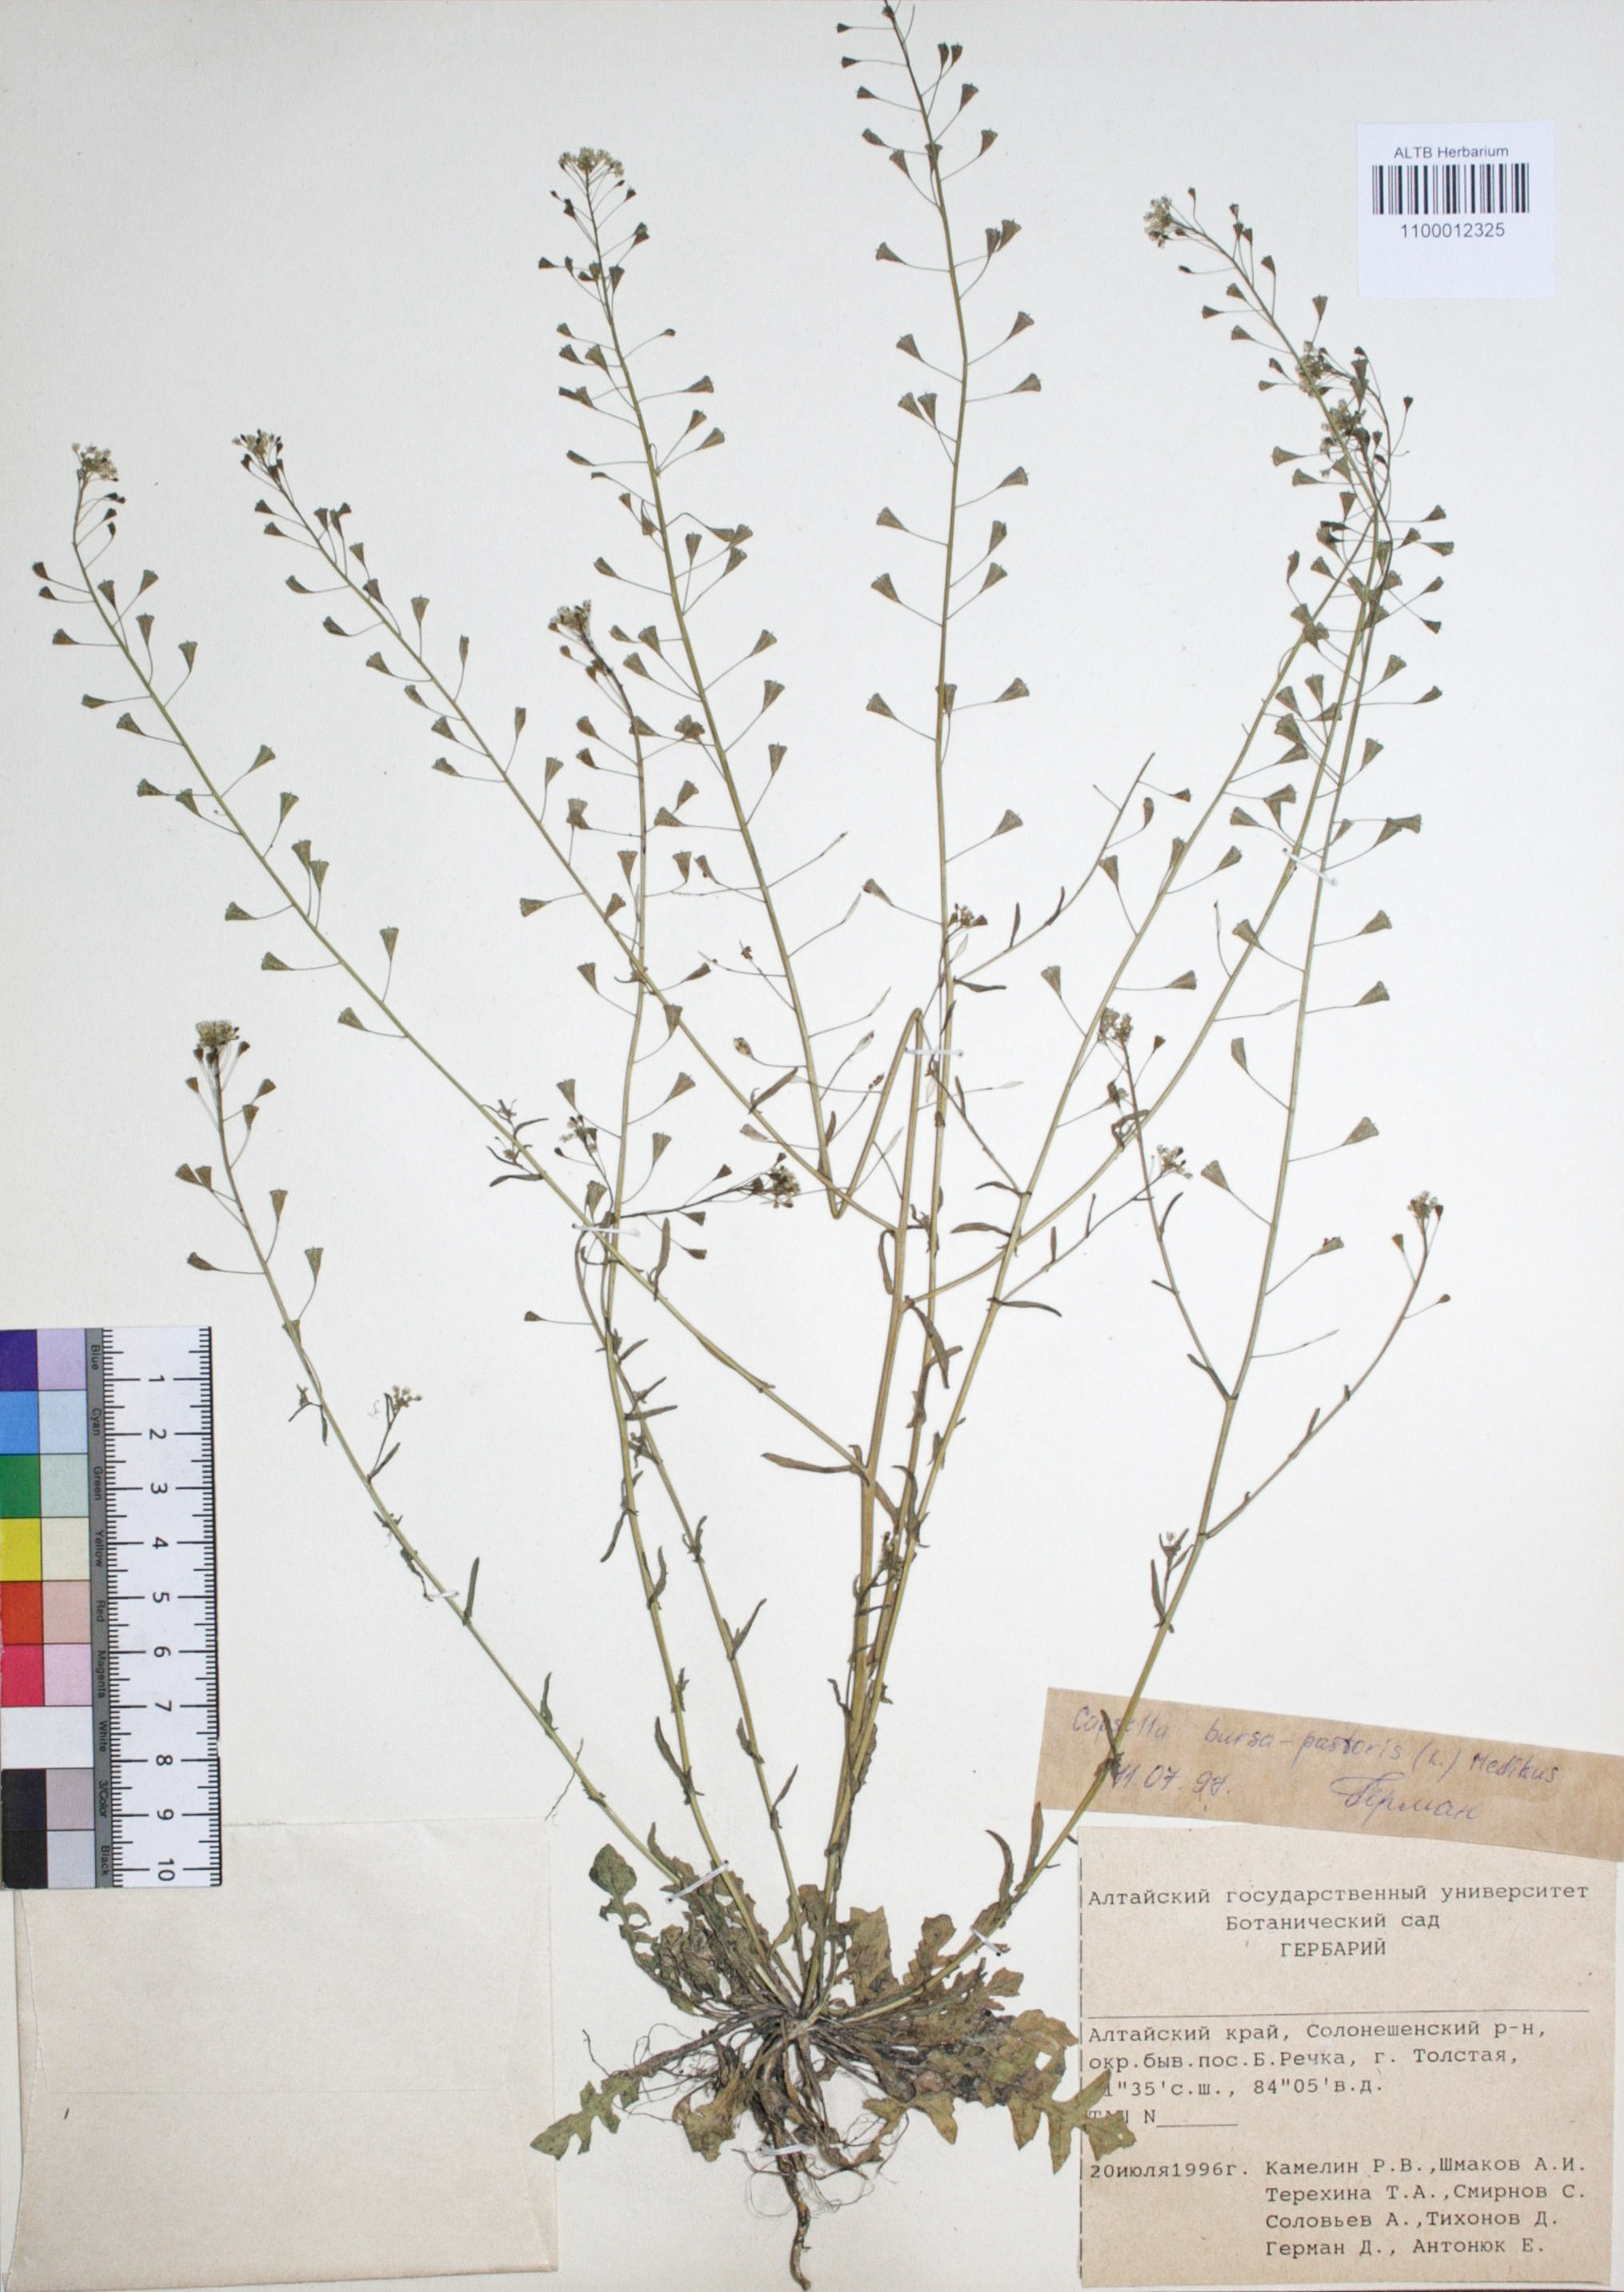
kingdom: Plantae
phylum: Tracheophyta
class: Magnoliopsida
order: Brassicales
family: Brassicaceae
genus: Capsella
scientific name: Capsella bursa-pastoris
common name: Shepherd's purse
